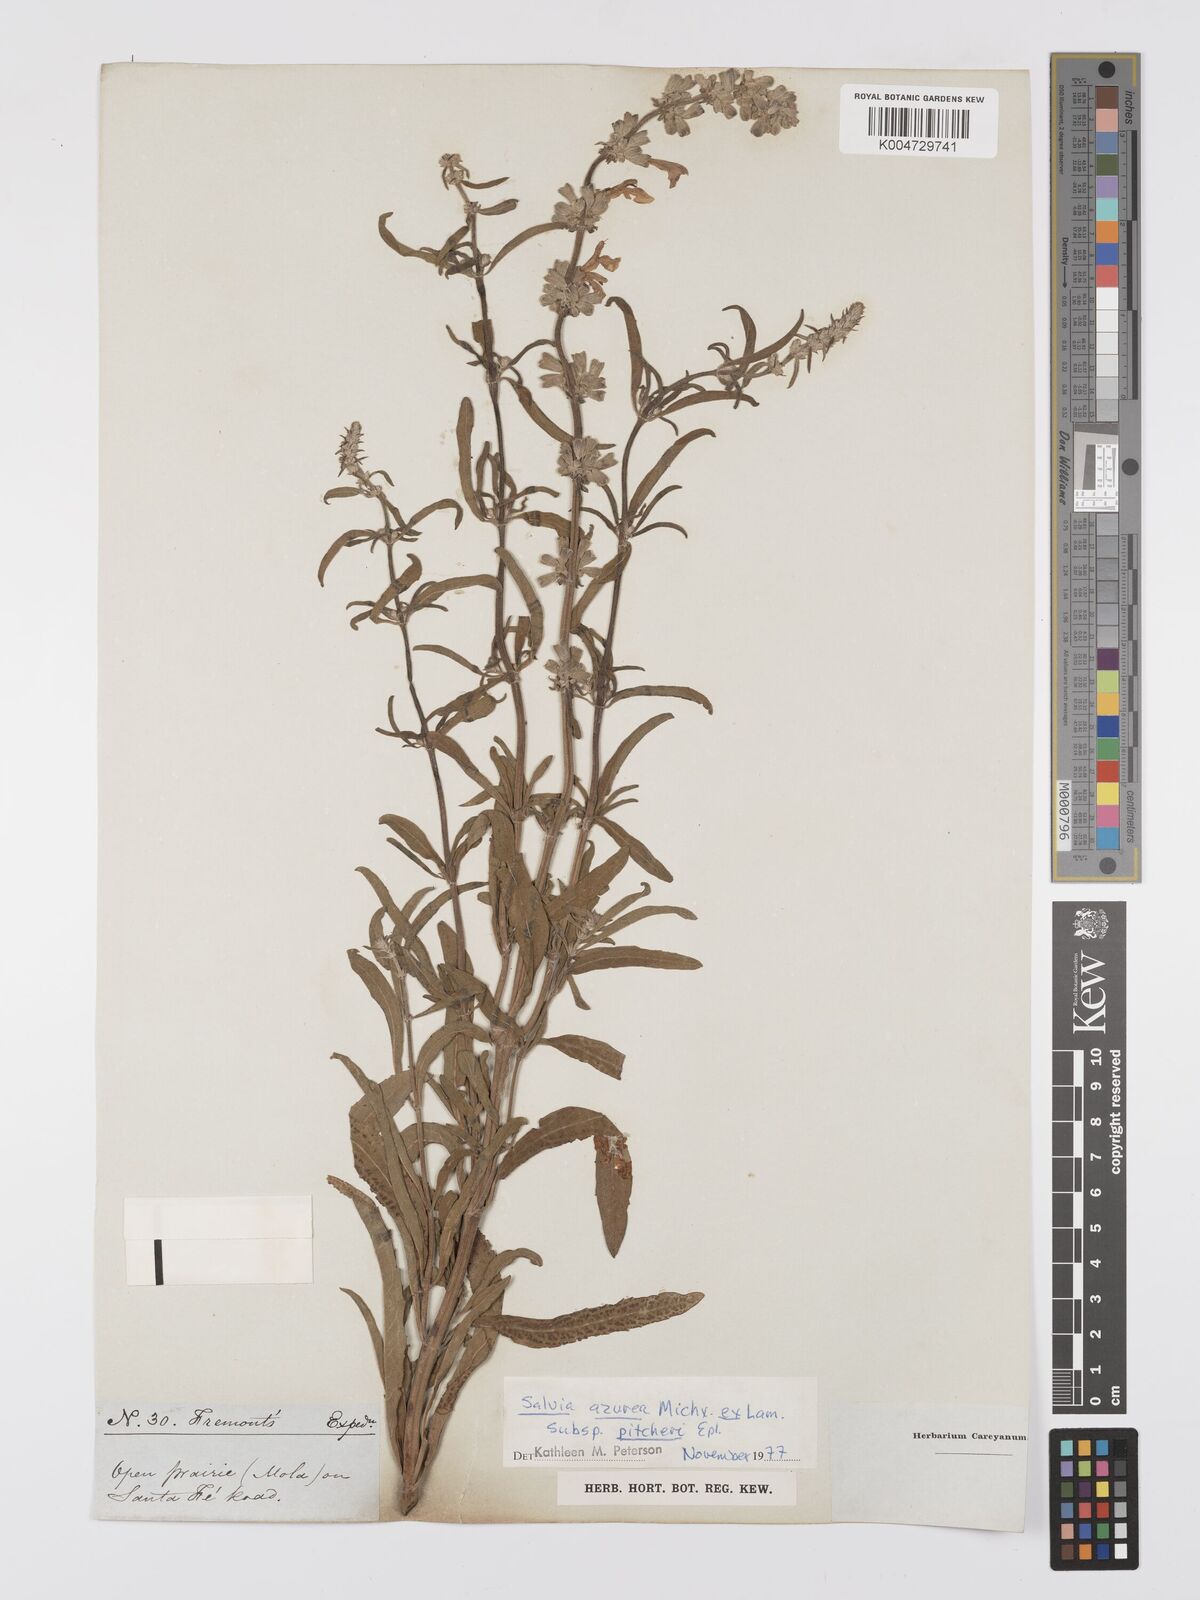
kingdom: Plantae
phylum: Tracheophyta
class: Magnoliopsida
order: Lamiales
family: Lamiaceae
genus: Salvia
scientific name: Salvia azurea
